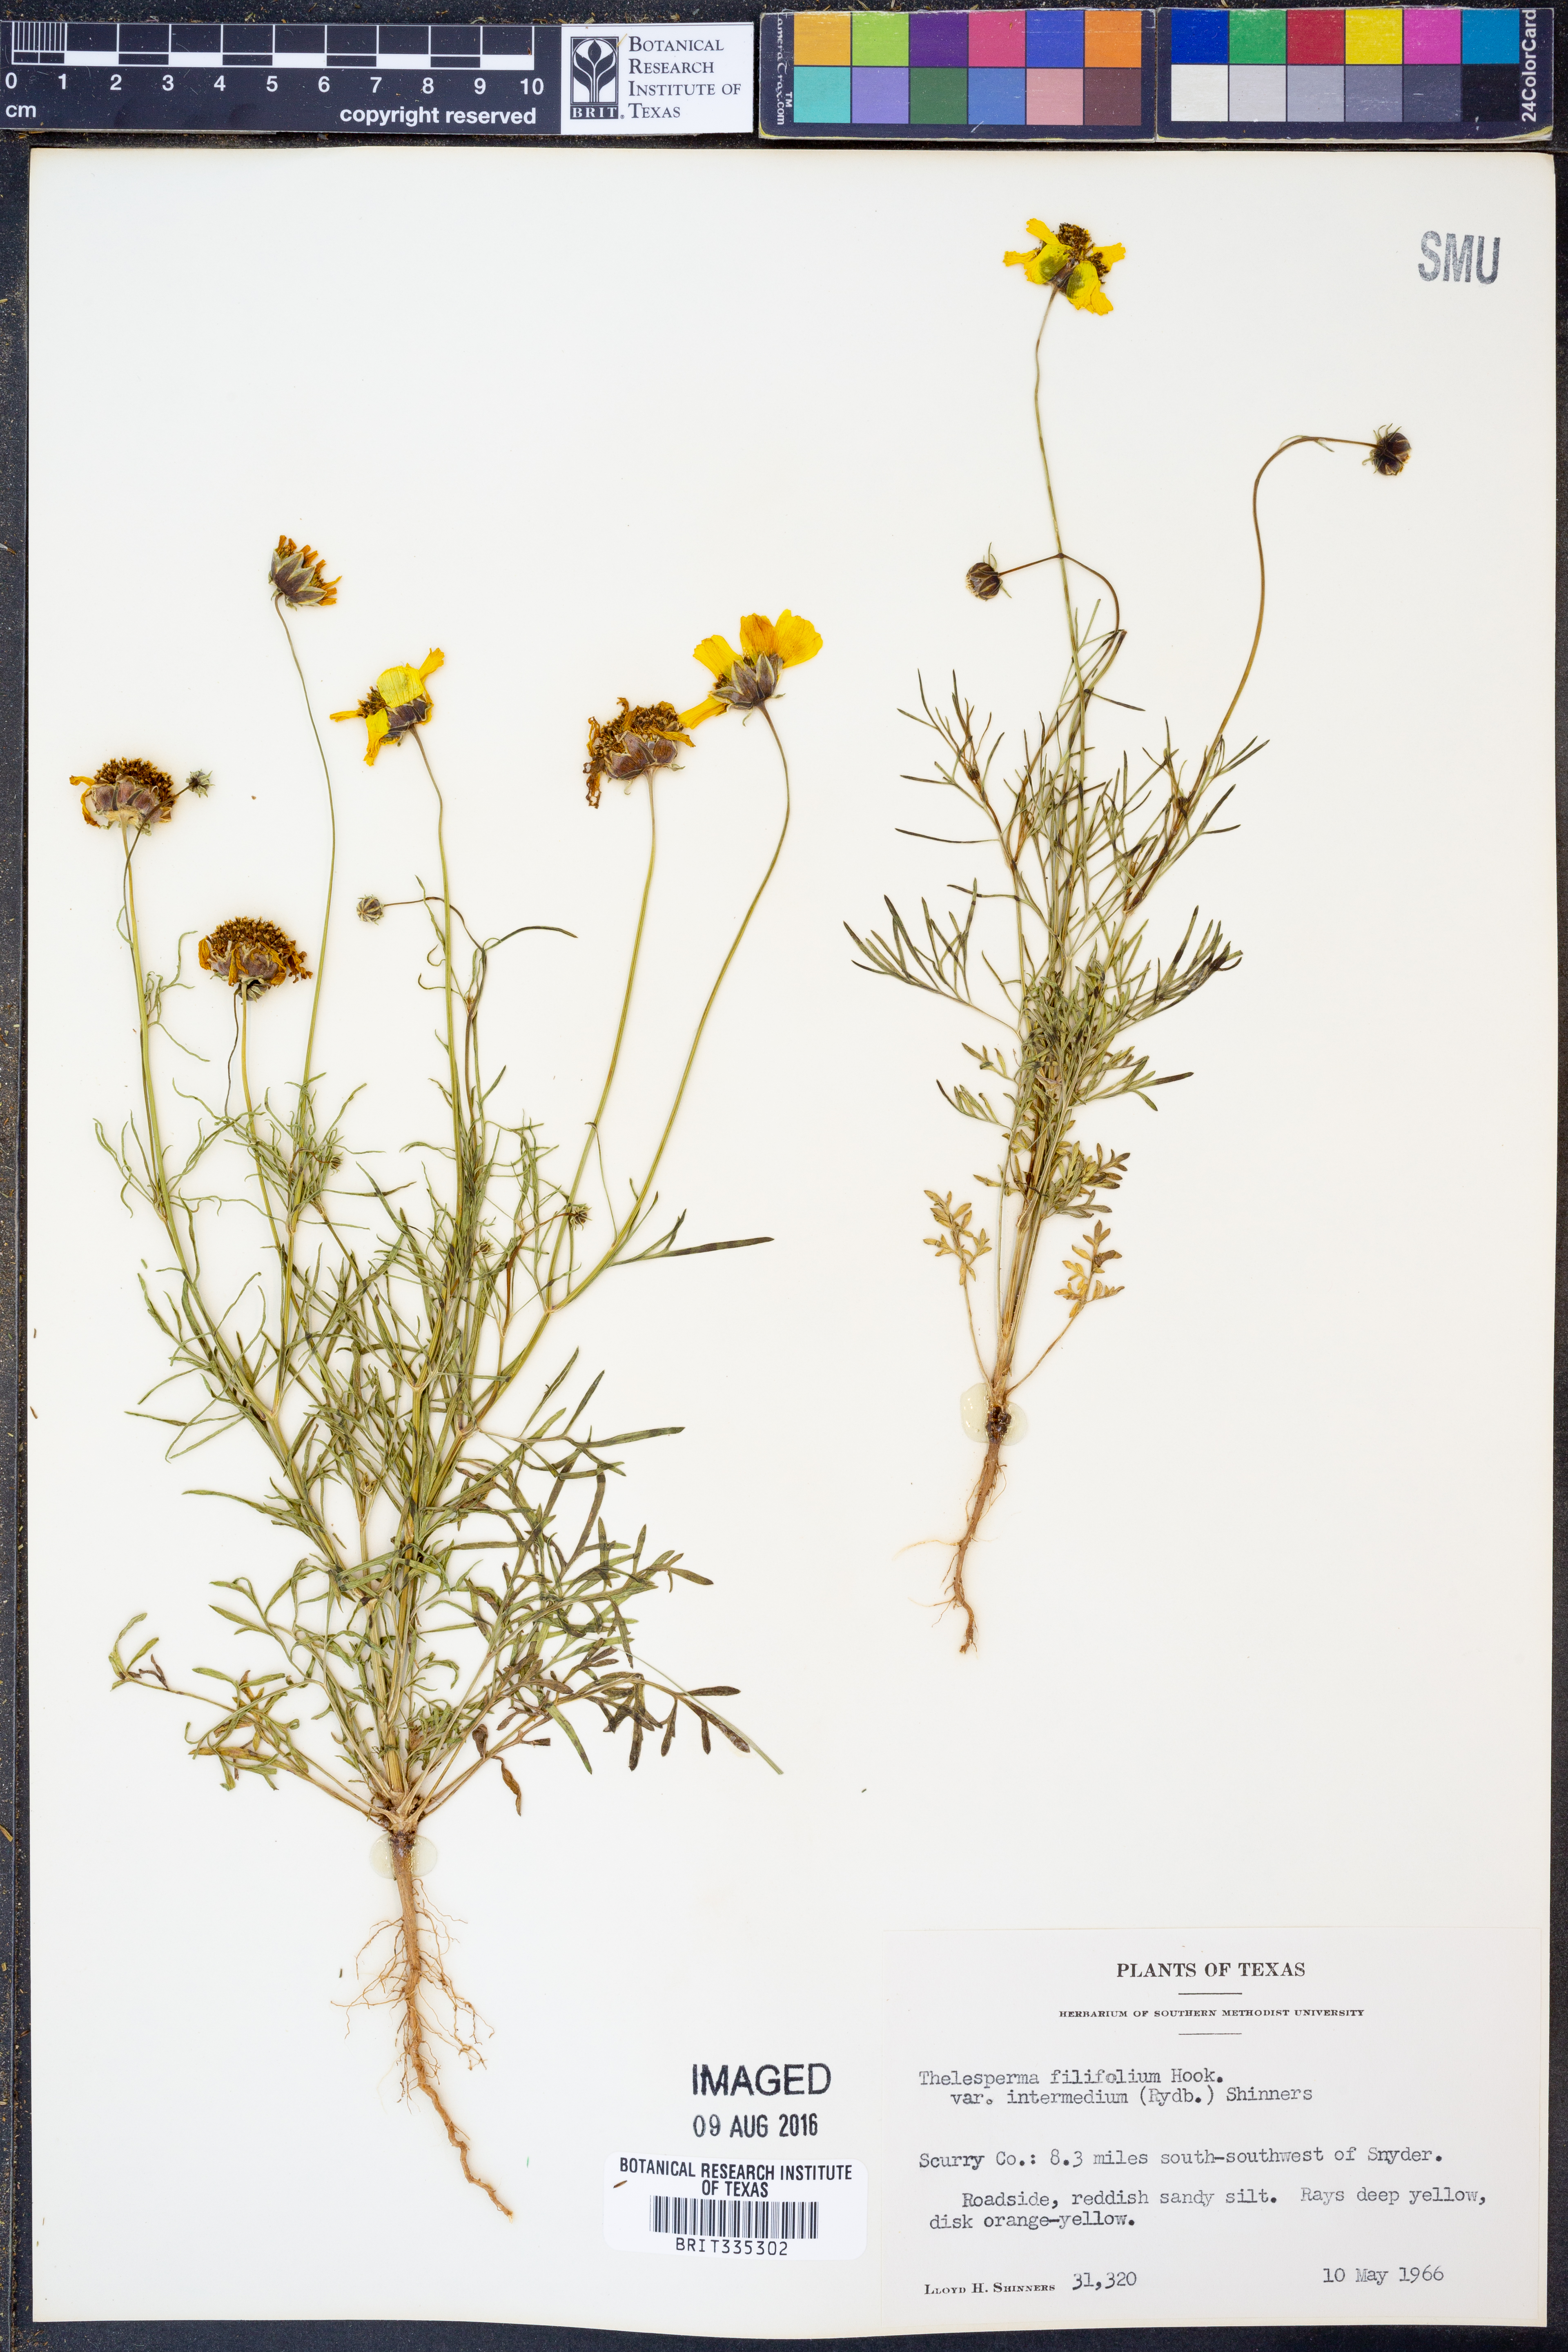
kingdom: Plantae
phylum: Tracheophyta
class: Magnoliopsida
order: Asterales
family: Asteraceae
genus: Thelesperma
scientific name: Thelesperma filifolium
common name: Stiff greenthread
